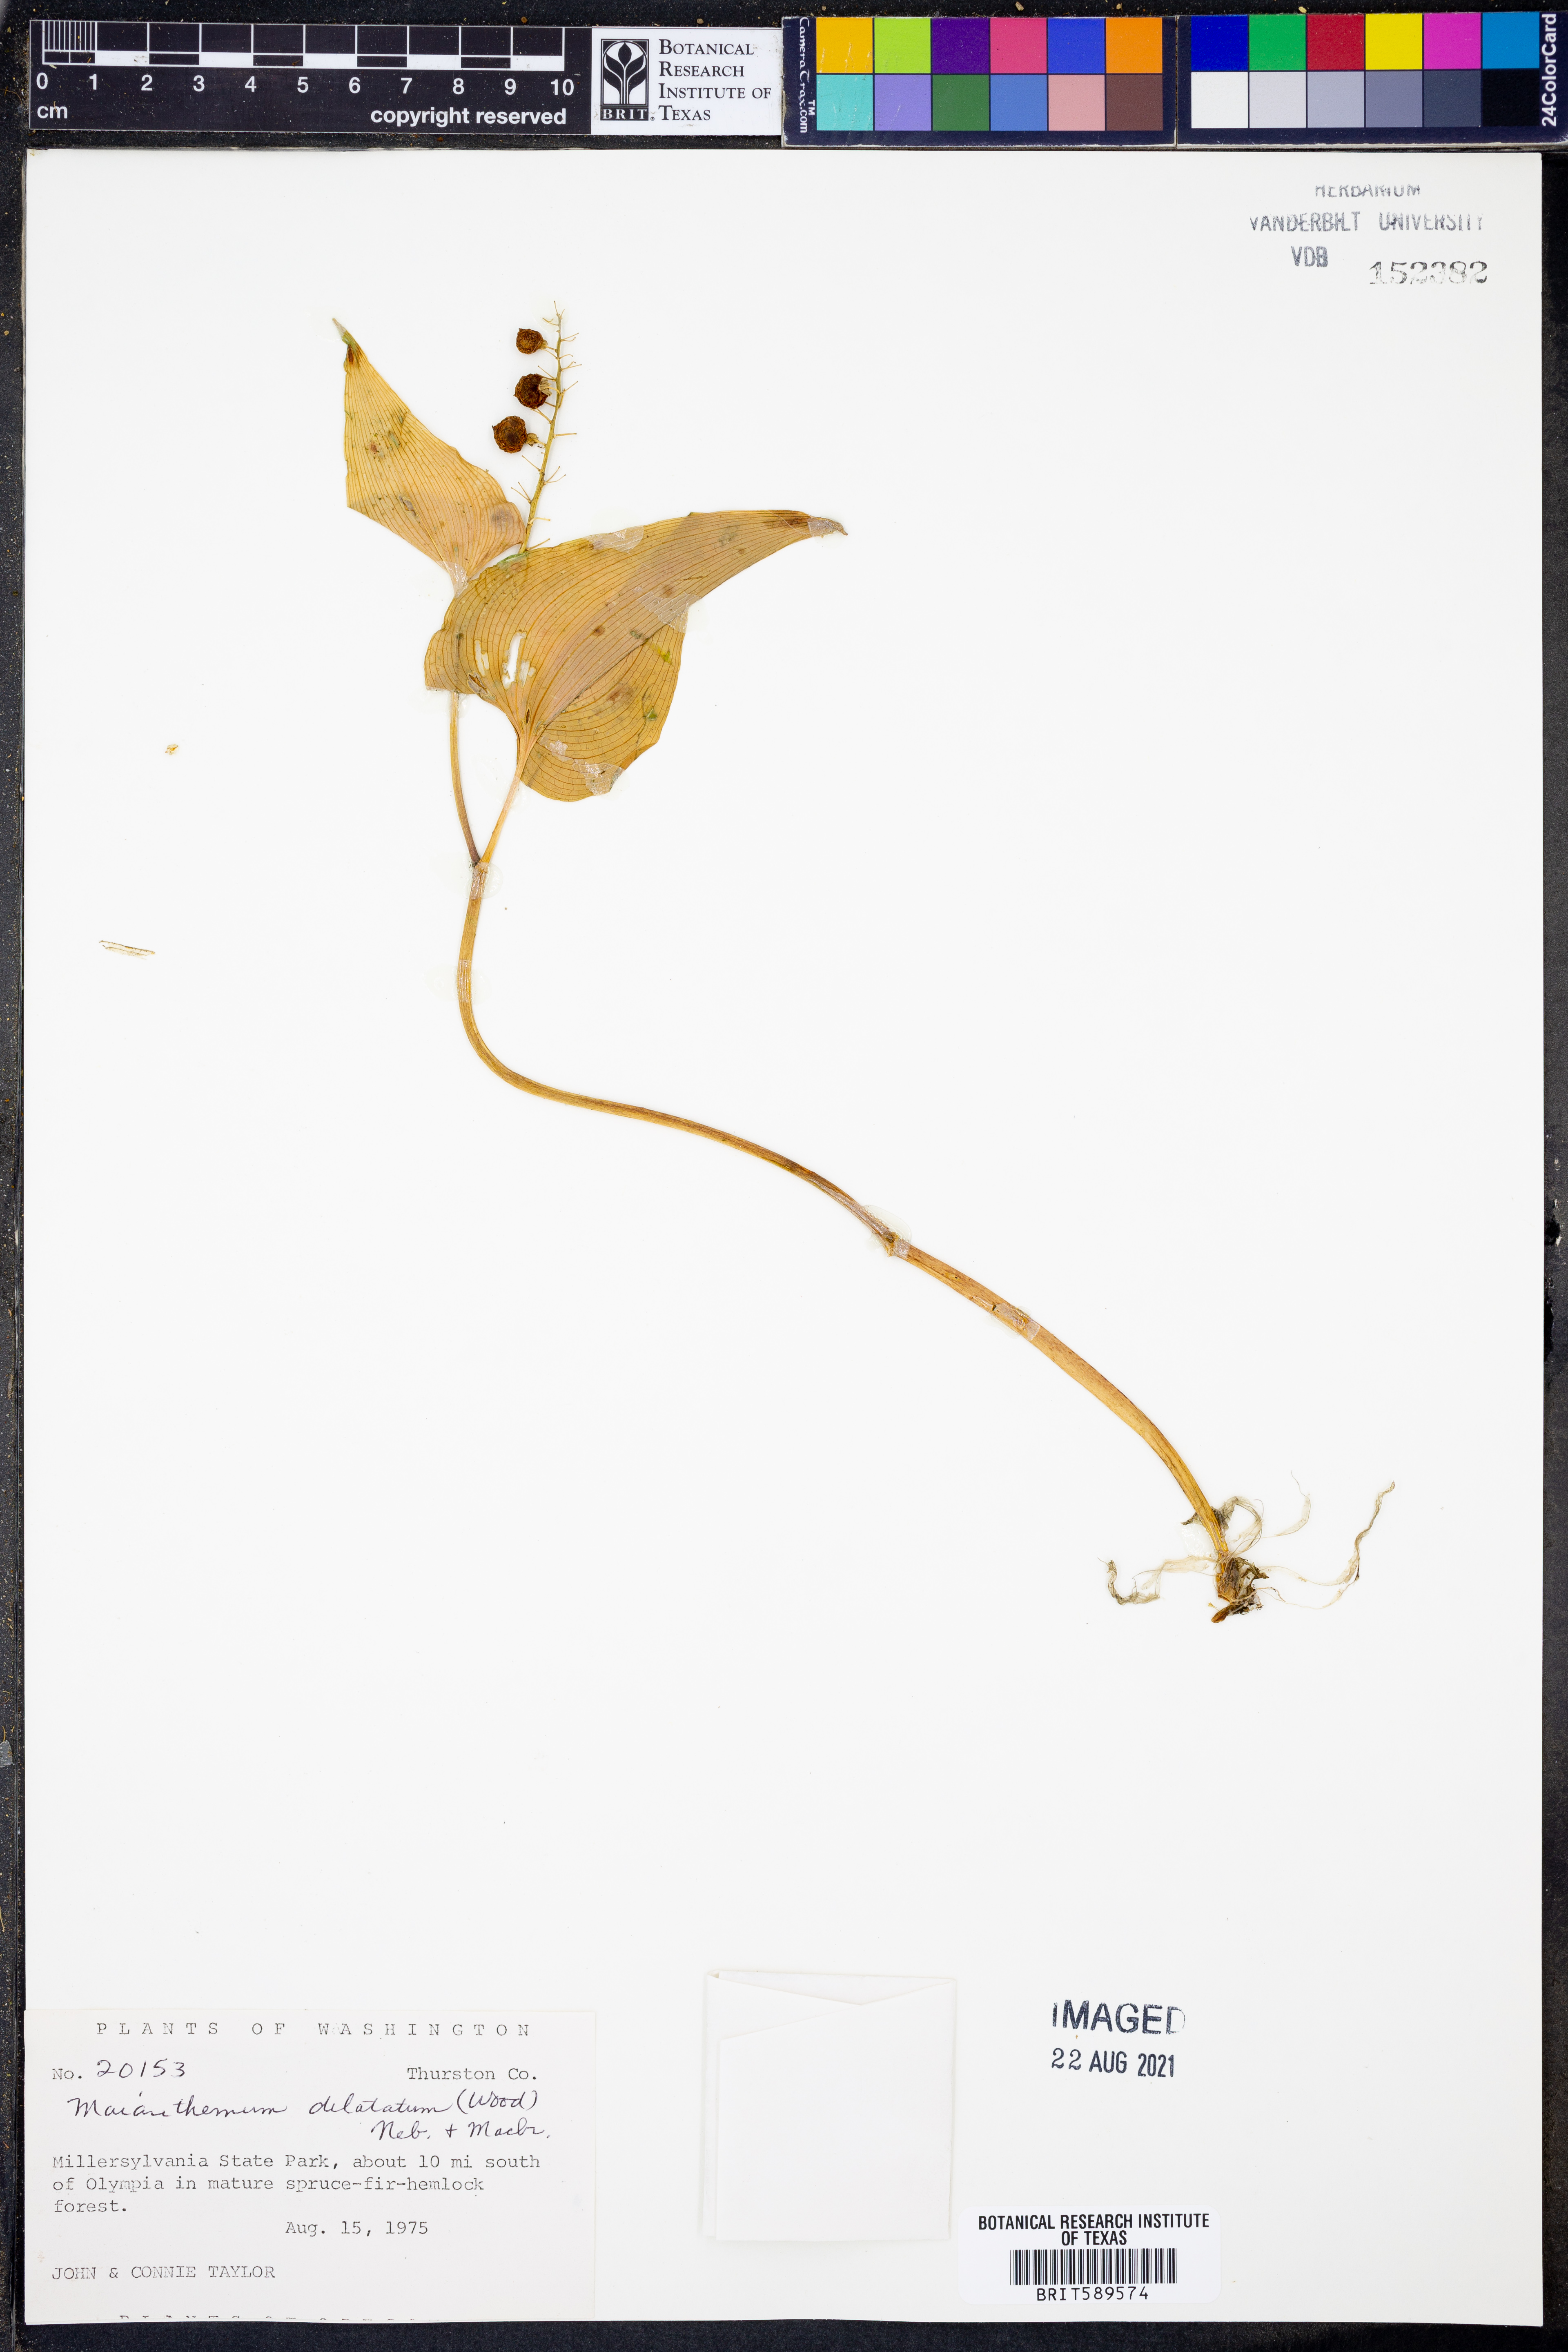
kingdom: Plantae
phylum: Tracheophyta
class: Liliopsida
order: Asparagales
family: Asparagaceae
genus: Maianthemum
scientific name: Maianthemum dilatatum
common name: False lily-of-the-valley
